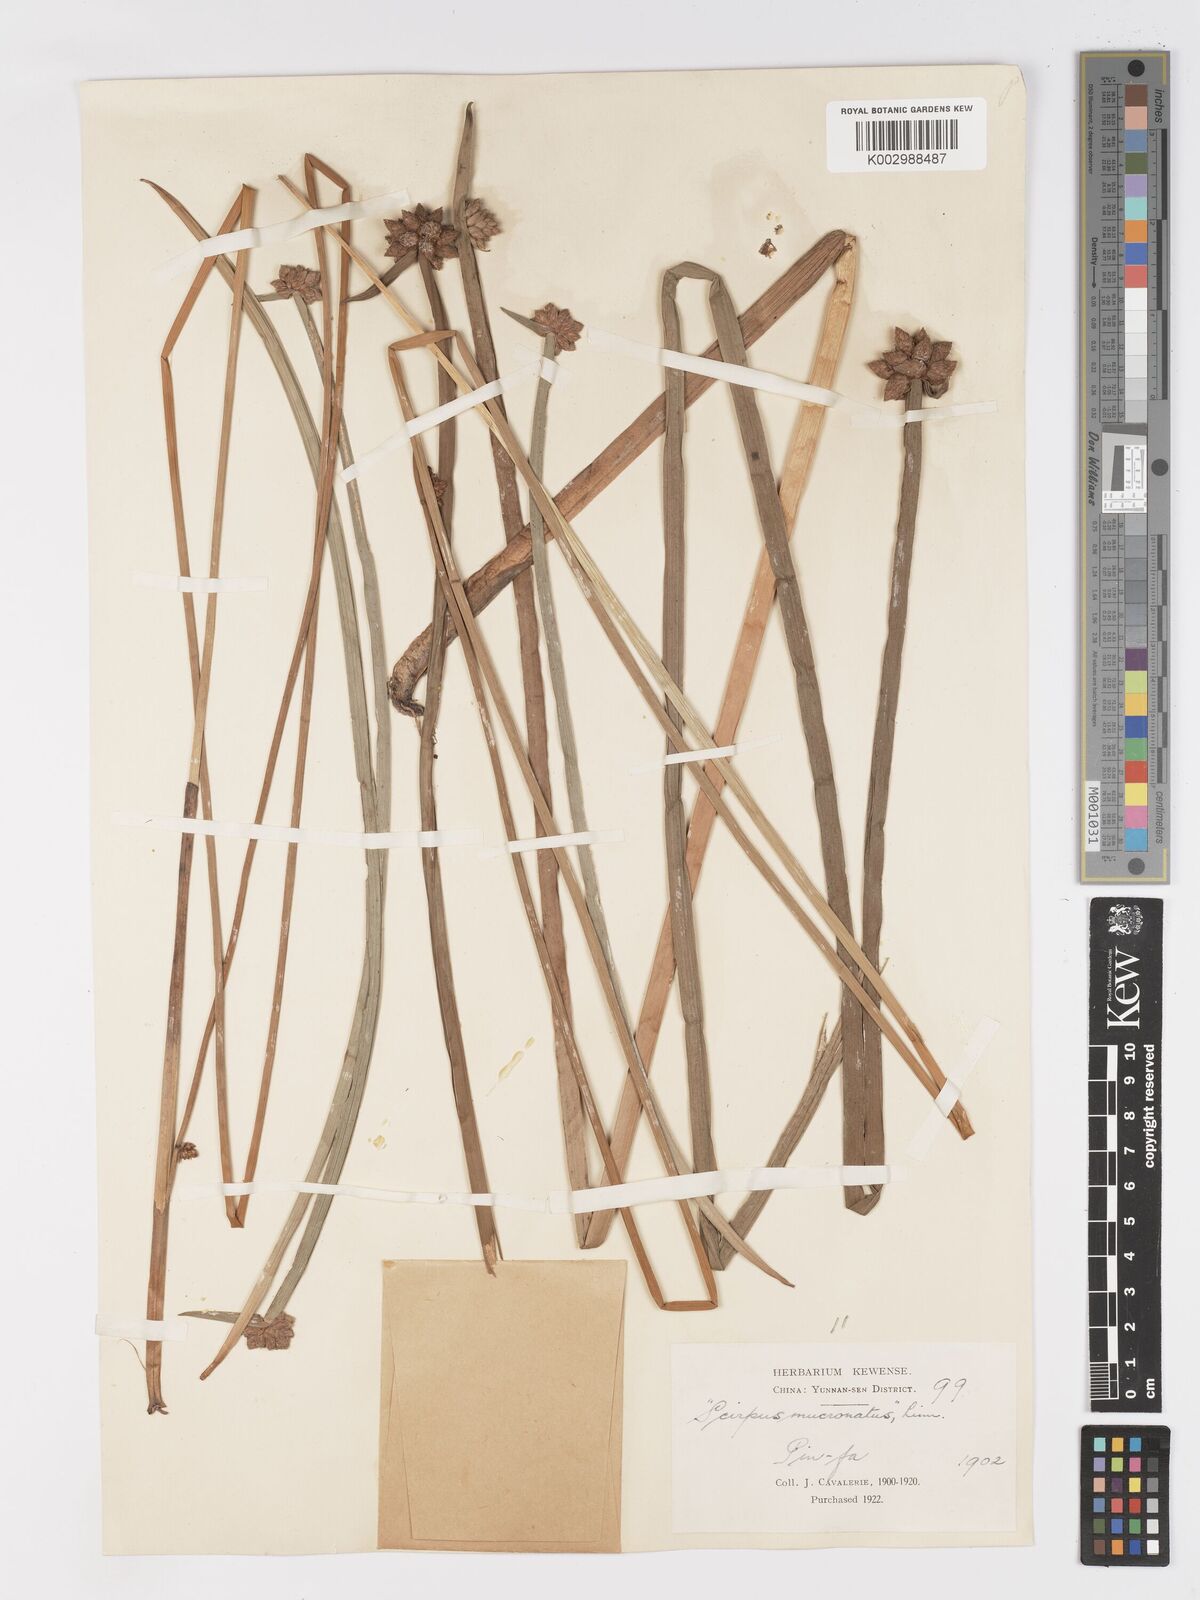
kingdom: Plantae
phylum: Tracheophyta
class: Liliopsida
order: Poales
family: Cyperaceae
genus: Schoenoplectiella
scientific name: Schoenoplectiella mucronata
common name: Bog bulrush
